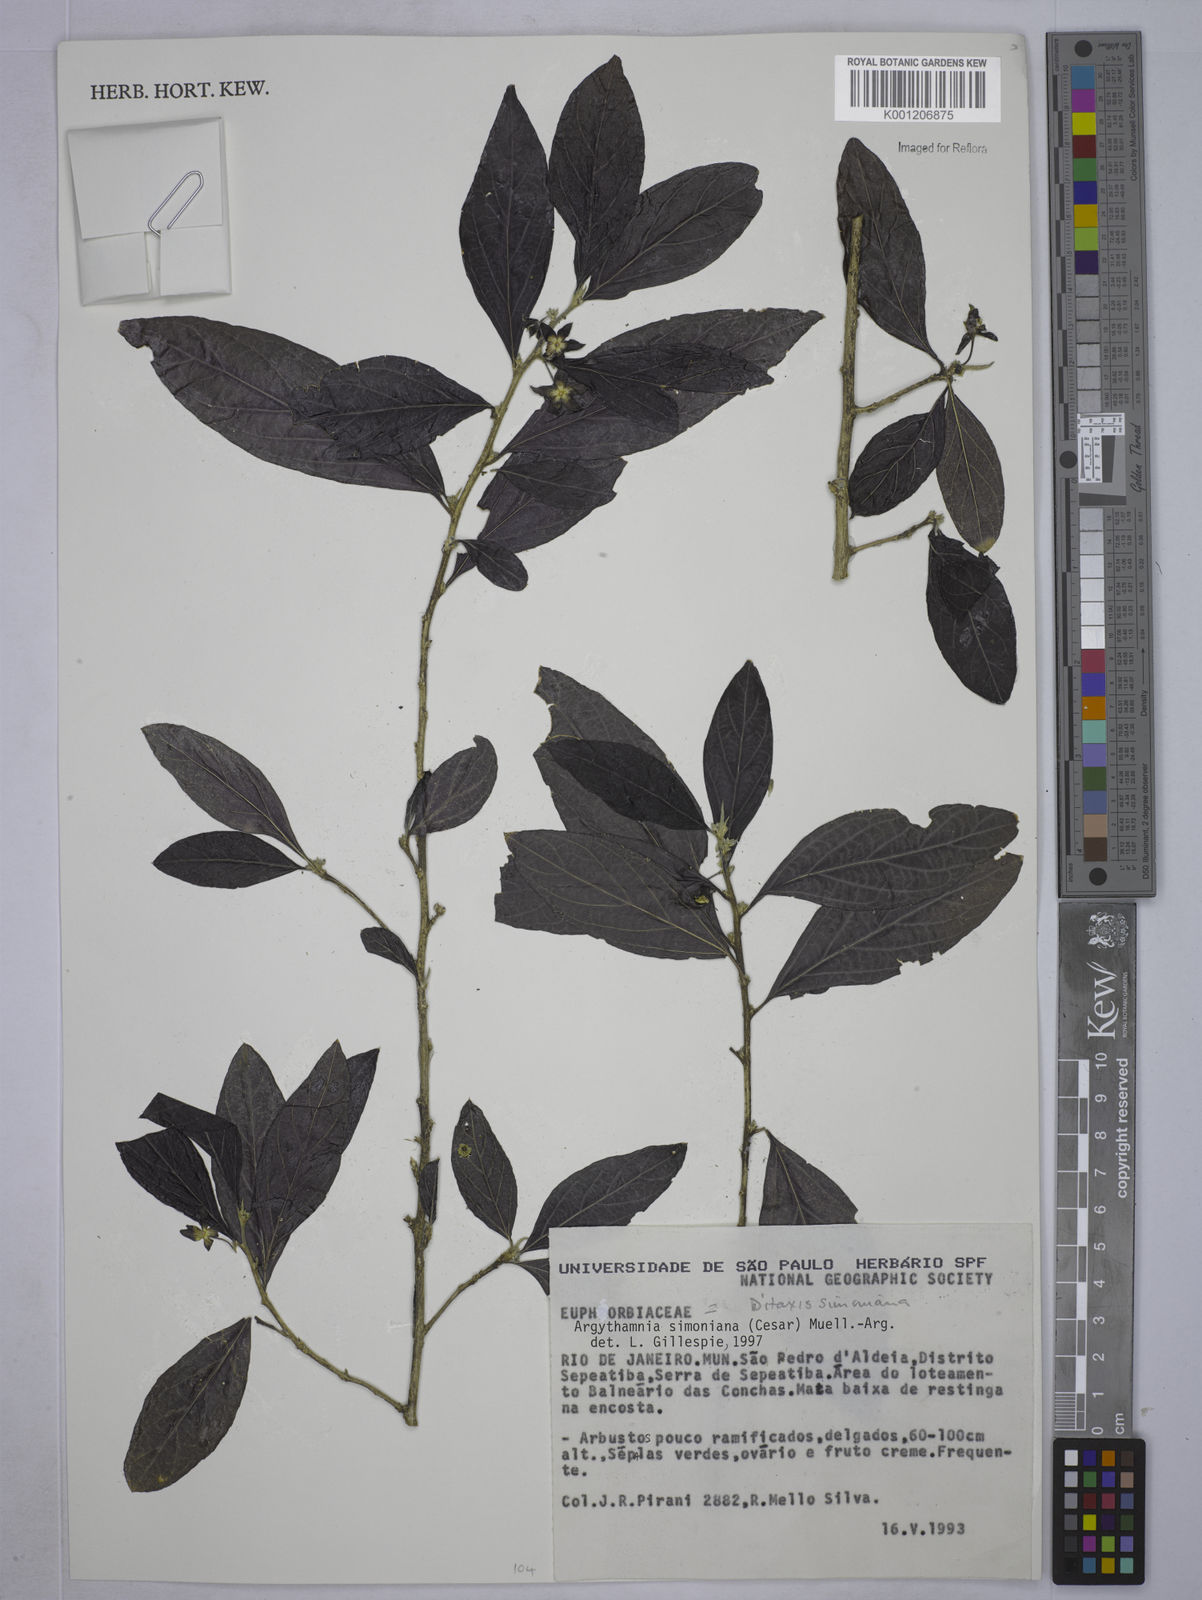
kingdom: Plantae
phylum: Tracheophyta
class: Magnoliopsida
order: Malpighiales
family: Euphorbiaceae
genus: Ditaxis
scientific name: Ditaxis simoniana
